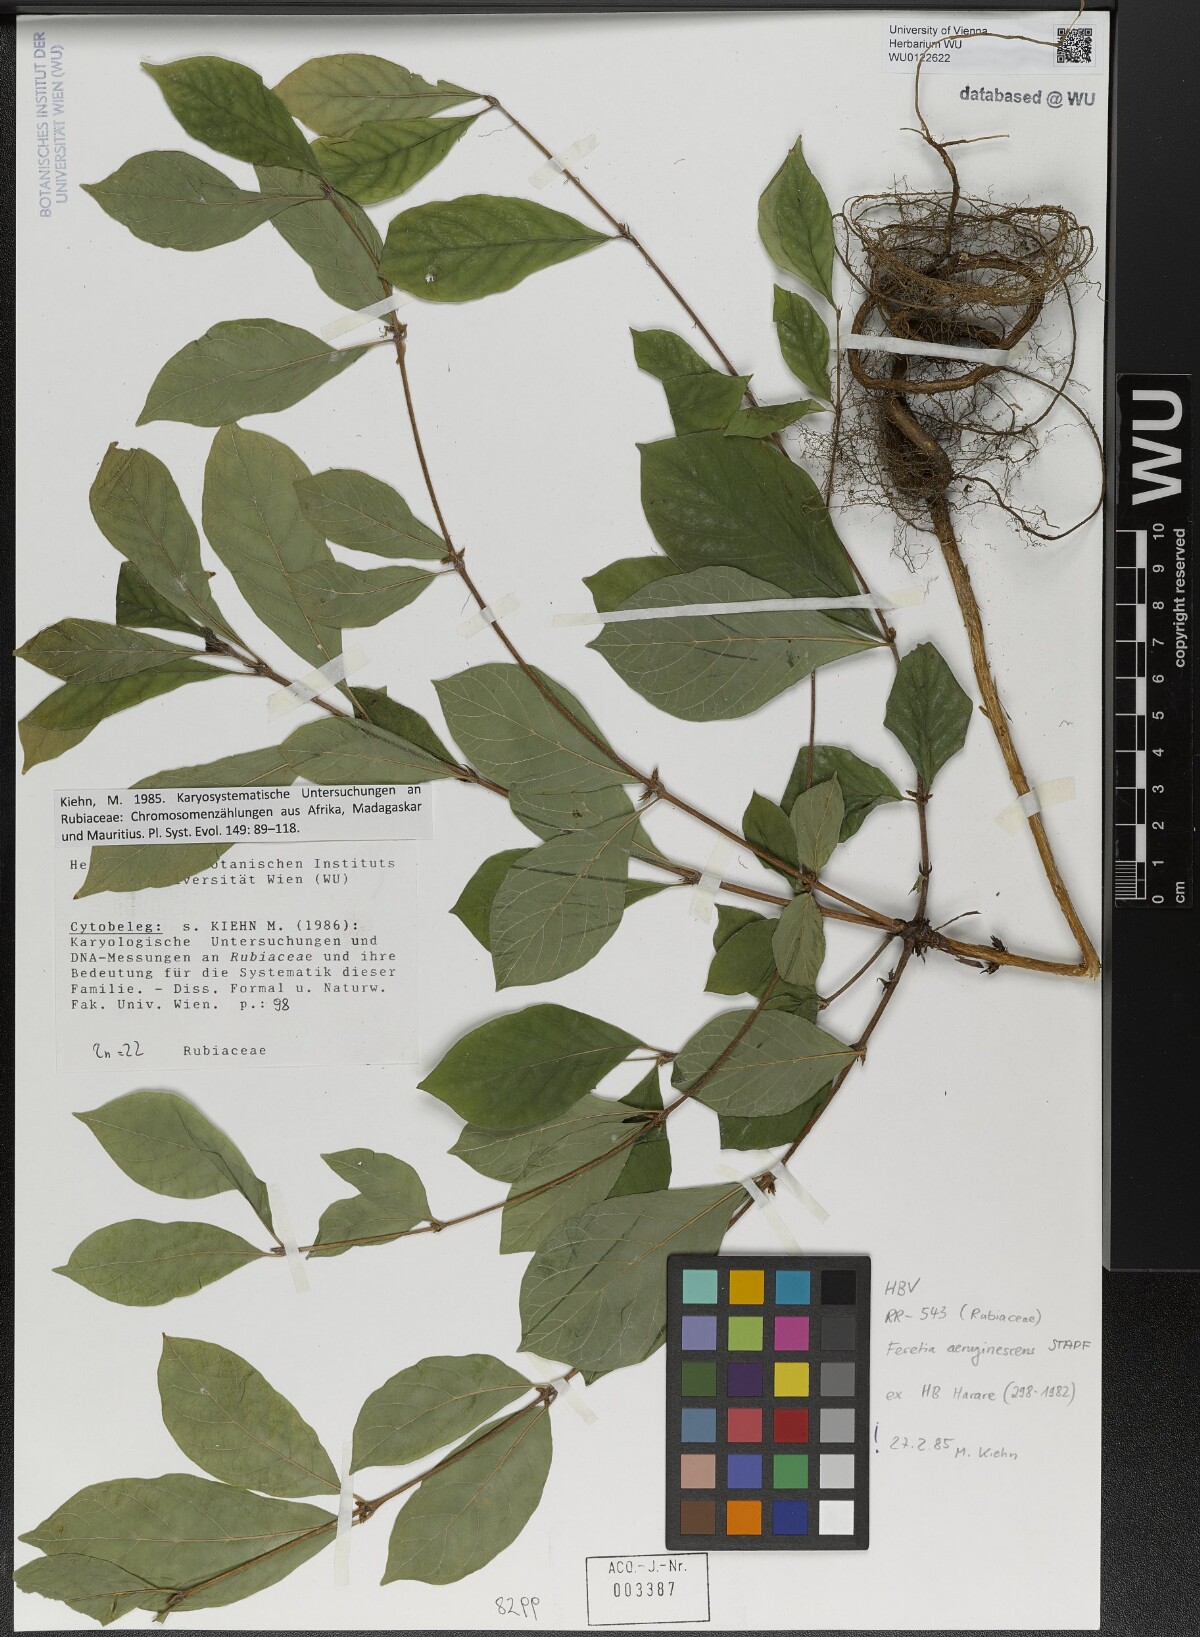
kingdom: Plantae
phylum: Tracheophyta
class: Magnoliopsida
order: Gentianales
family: Rubiaceae
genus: Feretia
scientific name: Feretia aeruginescens
